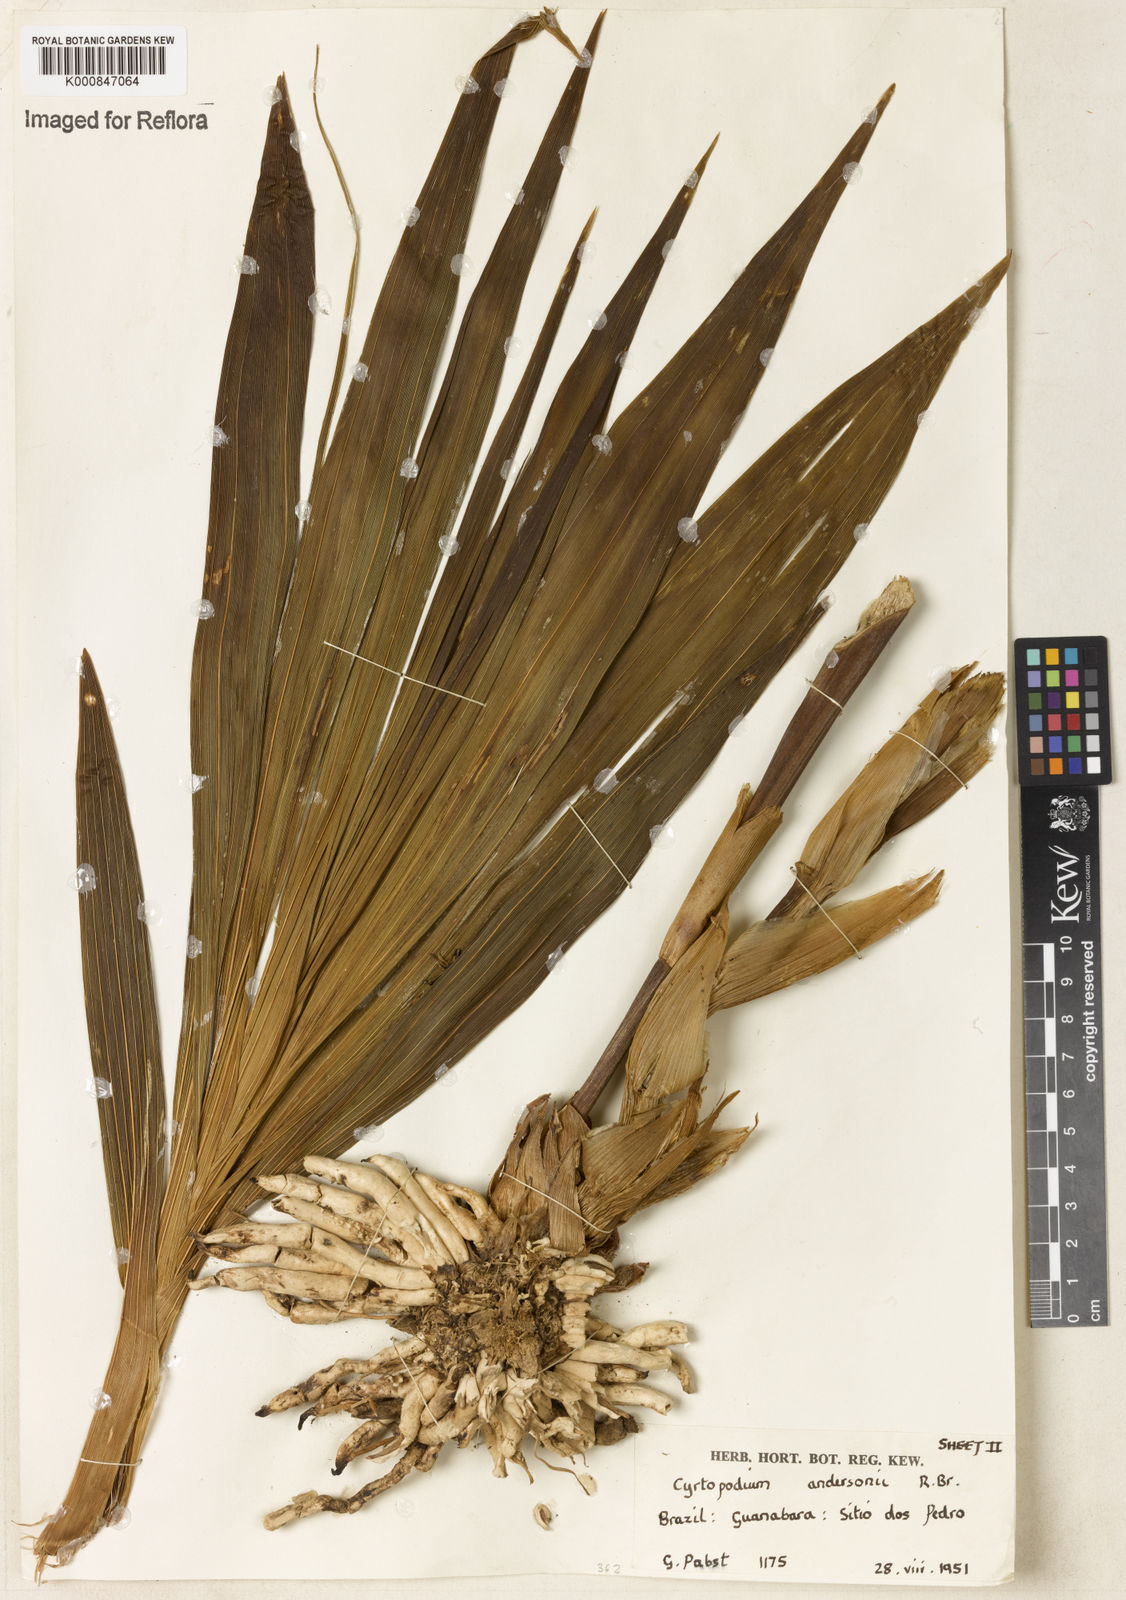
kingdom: Plantae
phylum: Tracheophyta
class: Liliopsida
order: Asparagales
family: Orchidaceae
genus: Cyrtopodium
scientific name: Cyrtopodium andersonii
